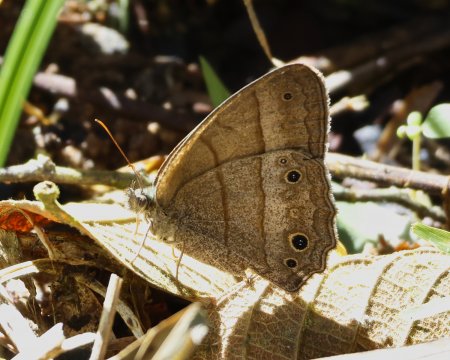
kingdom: Animalia
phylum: Arthropoda
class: Insecta
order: Lepidoptera
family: Nymphalidae
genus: Yphthimoides
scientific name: Yphthimoides renata
